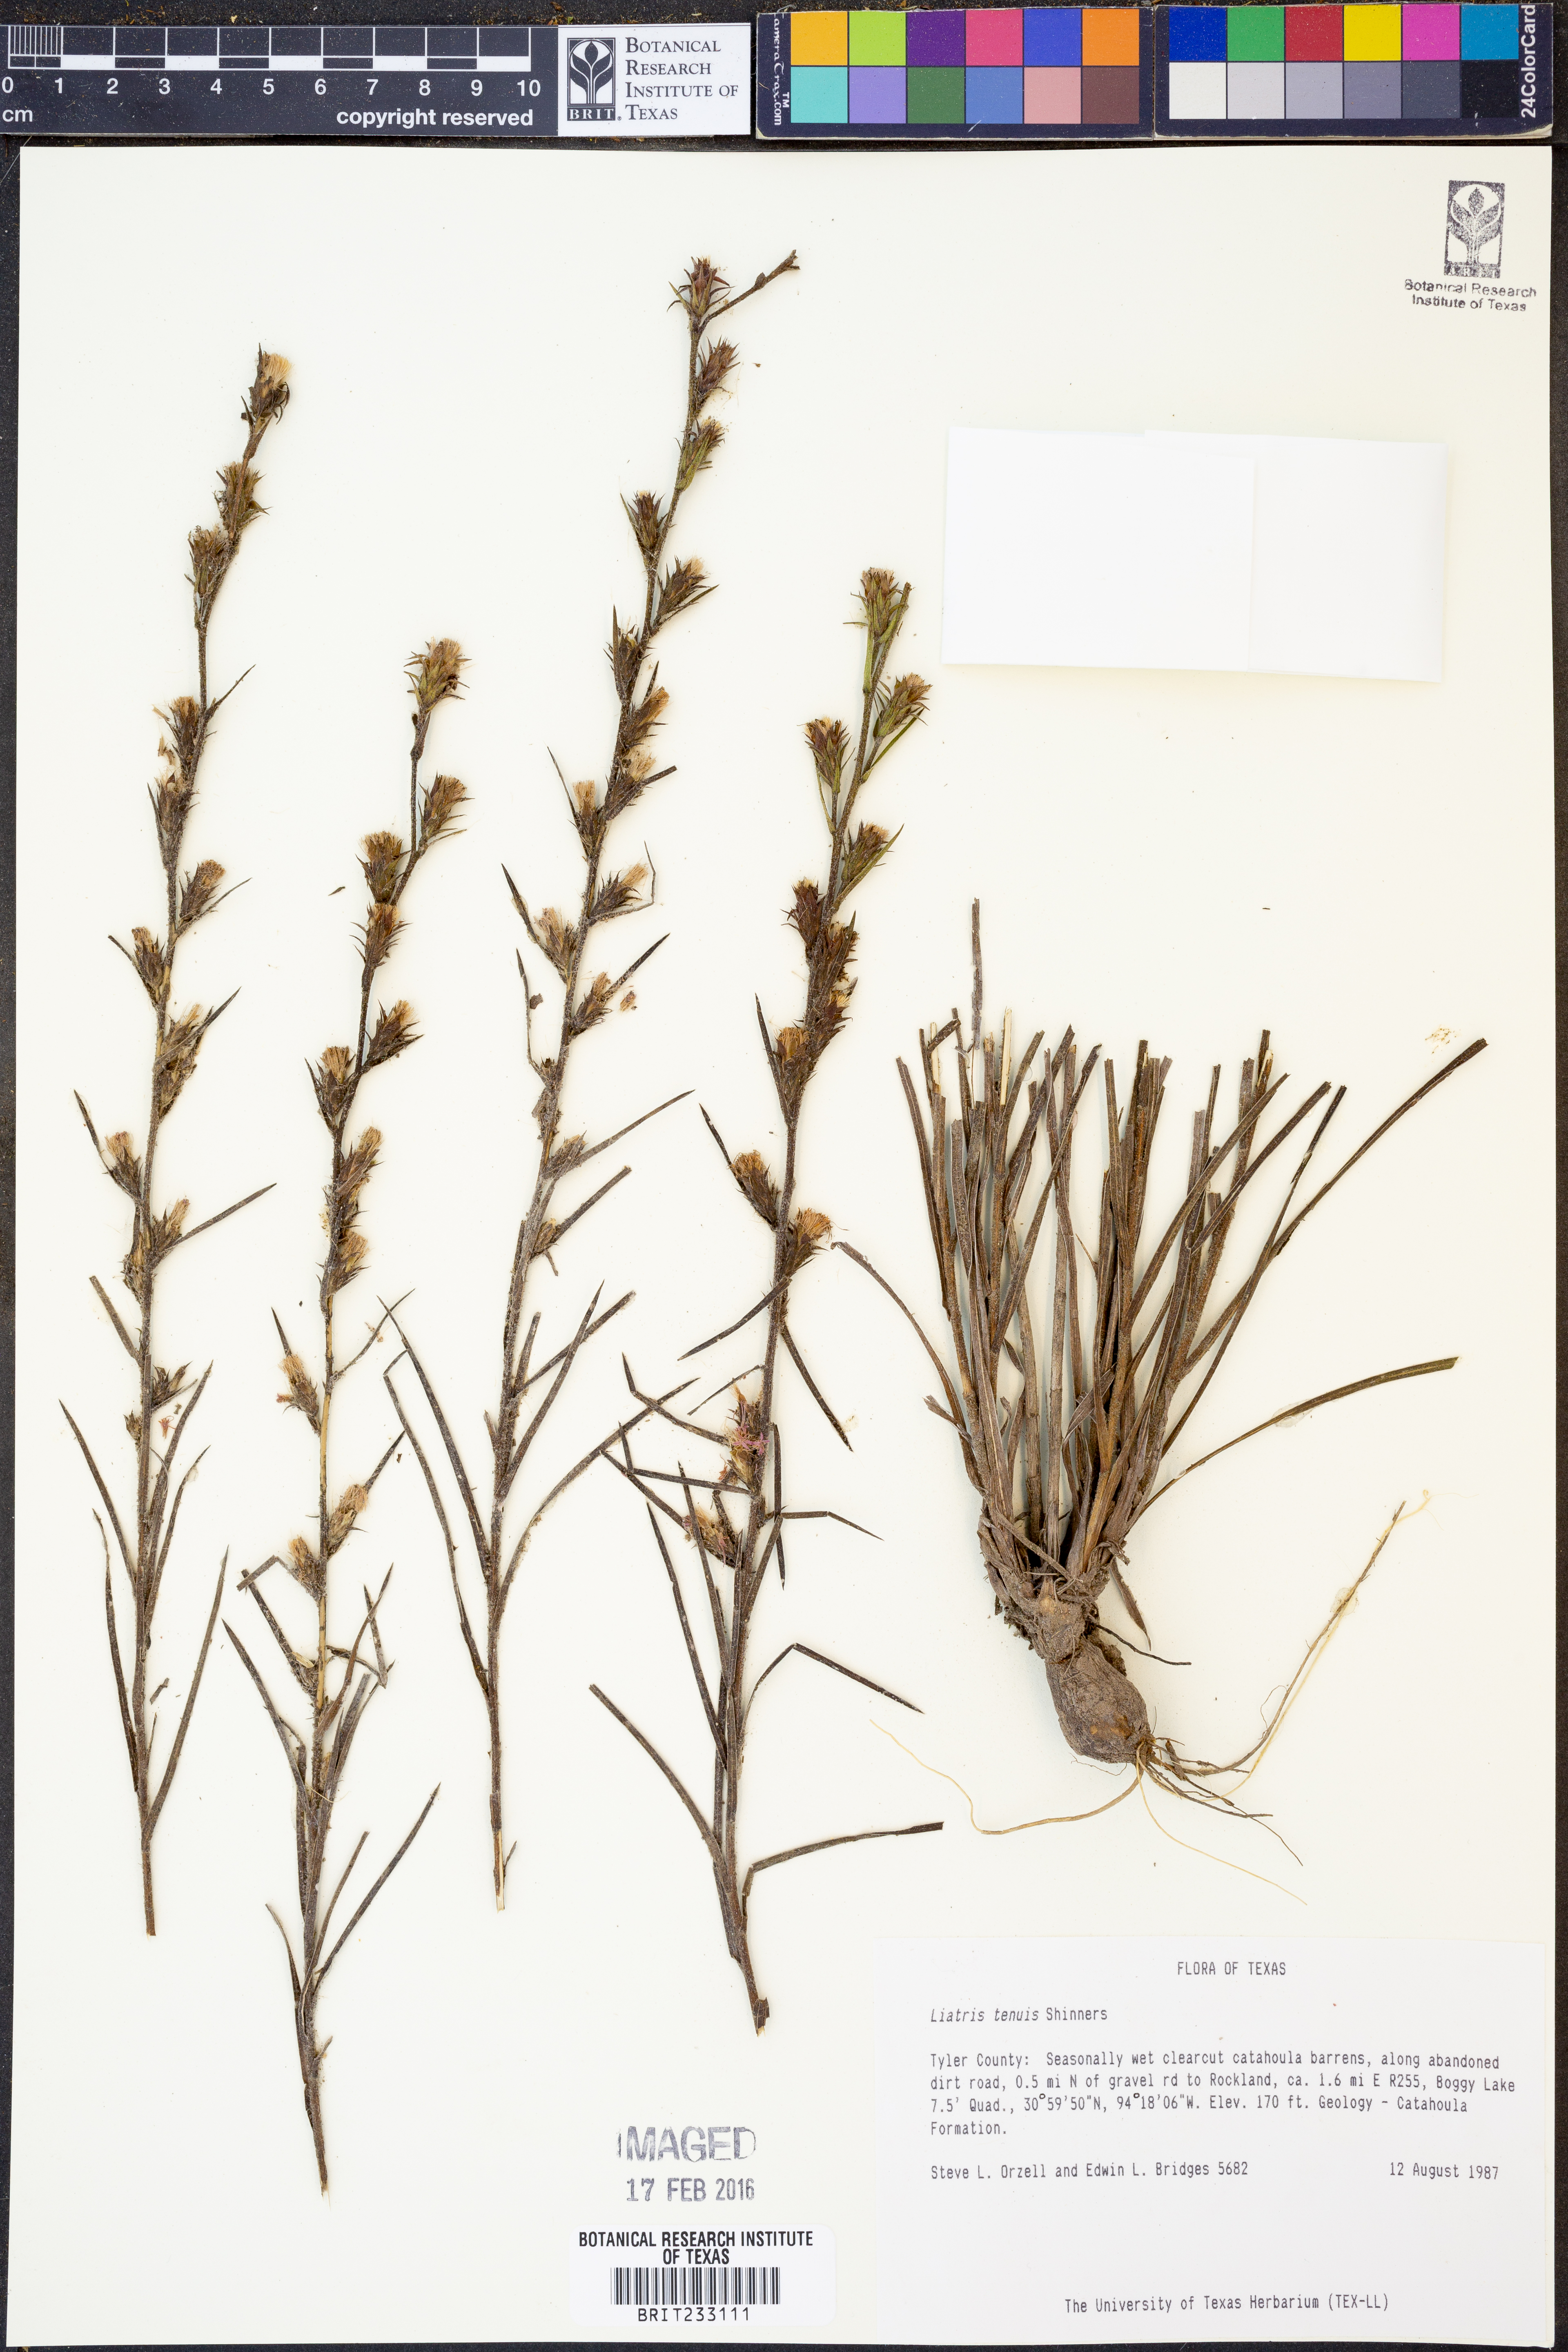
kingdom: Plantae
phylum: Tracheophyta
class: Magnoliopsida
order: Asterales
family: Asteraceae
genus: Liatris
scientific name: Liatris tenuis
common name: Shinner's gayfeather
